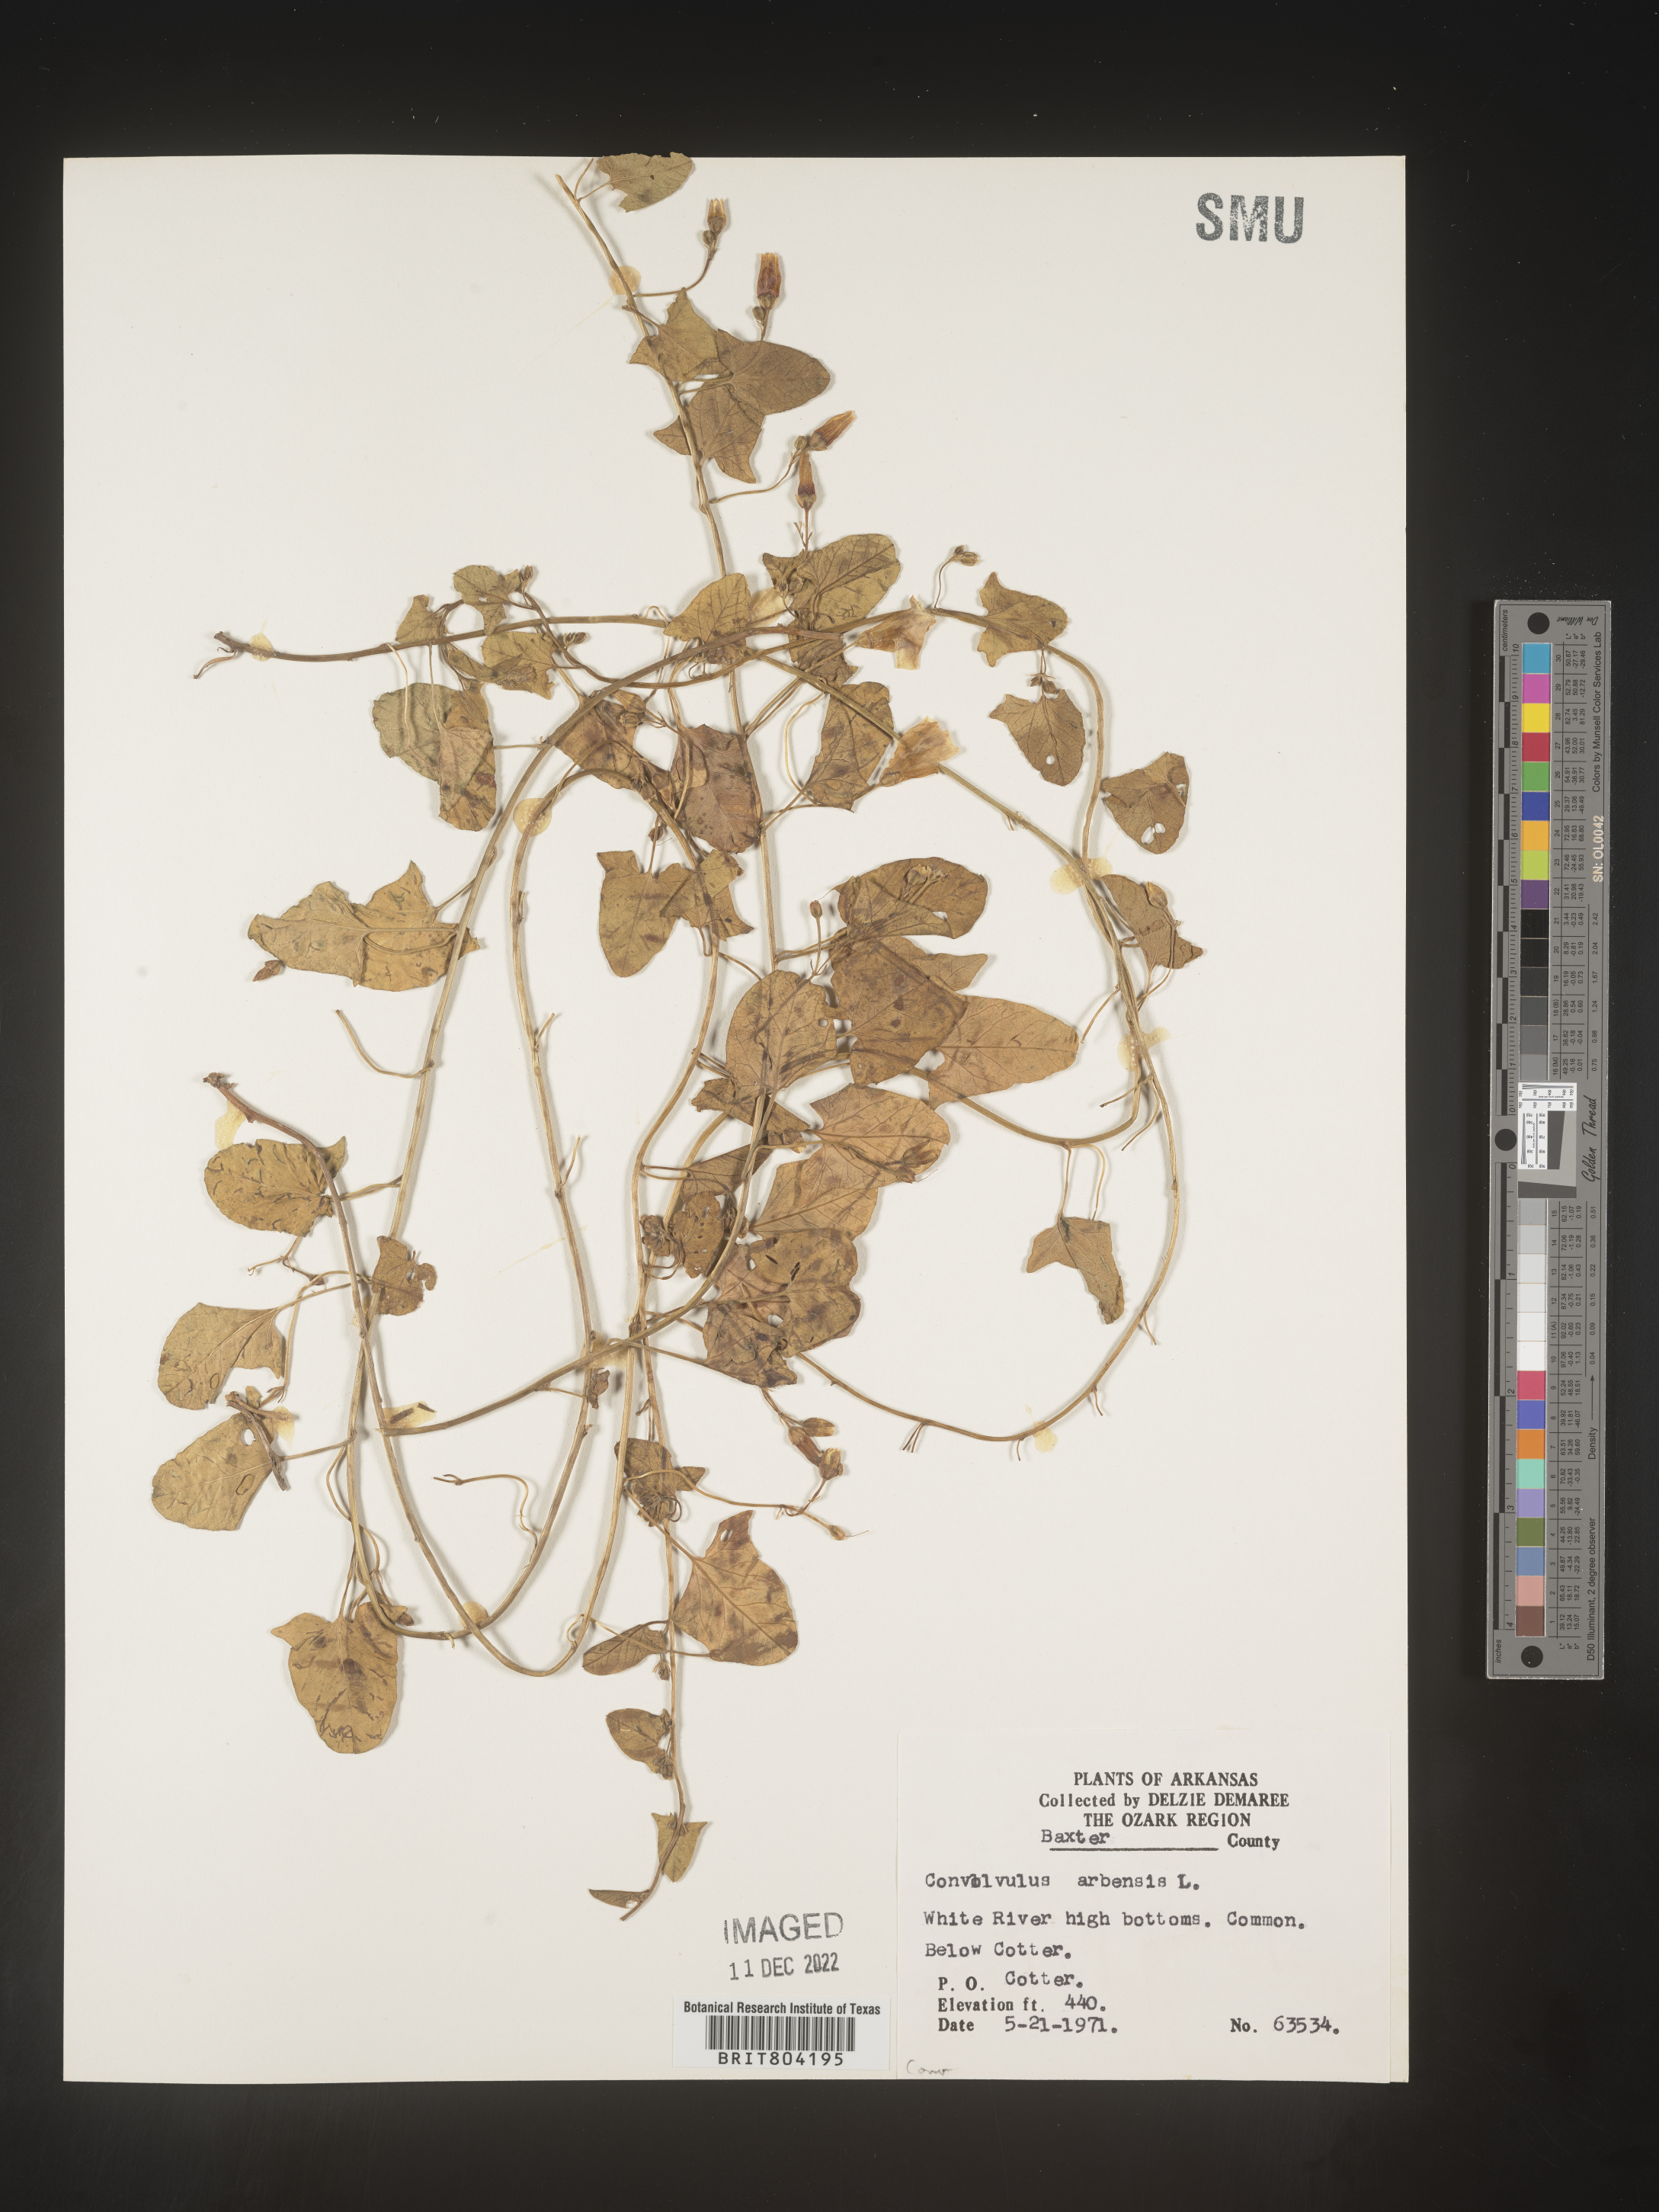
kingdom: Plantae
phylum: Tracheophyta
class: Magnoliopsida
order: Solanales
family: Convolvulaceae
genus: Convolvulus
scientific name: Convolvulus arvensis
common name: Field bindweed
